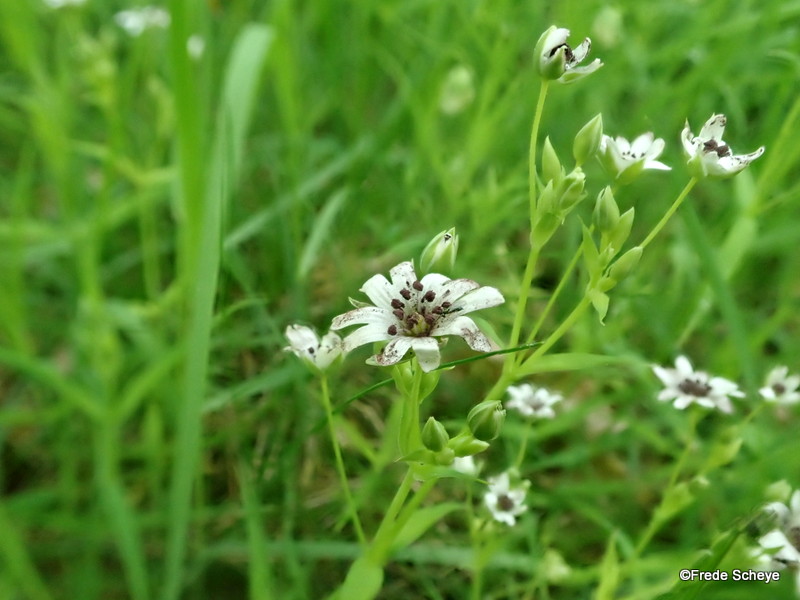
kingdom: Fungi
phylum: Basidiomycota
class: Microbotryomycetes
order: Microbotryales
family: Microbotryaceae
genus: Microbotryum
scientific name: Microbotryum stellariae
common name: fladstjerne-støvbladrust
